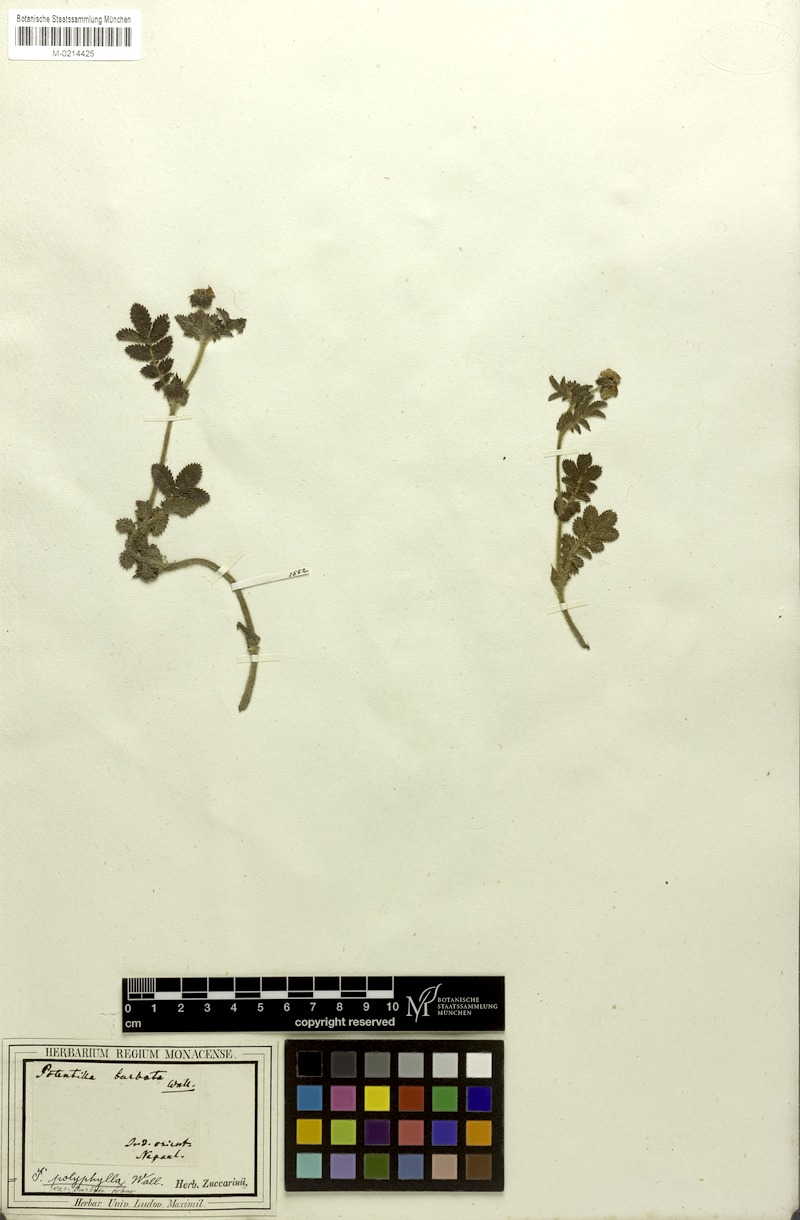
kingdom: Plantae
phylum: Tracheophyta
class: Magnoliopsida
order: Rosales
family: Rosaceae
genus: Argentina
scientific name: Argentina polyphylla
